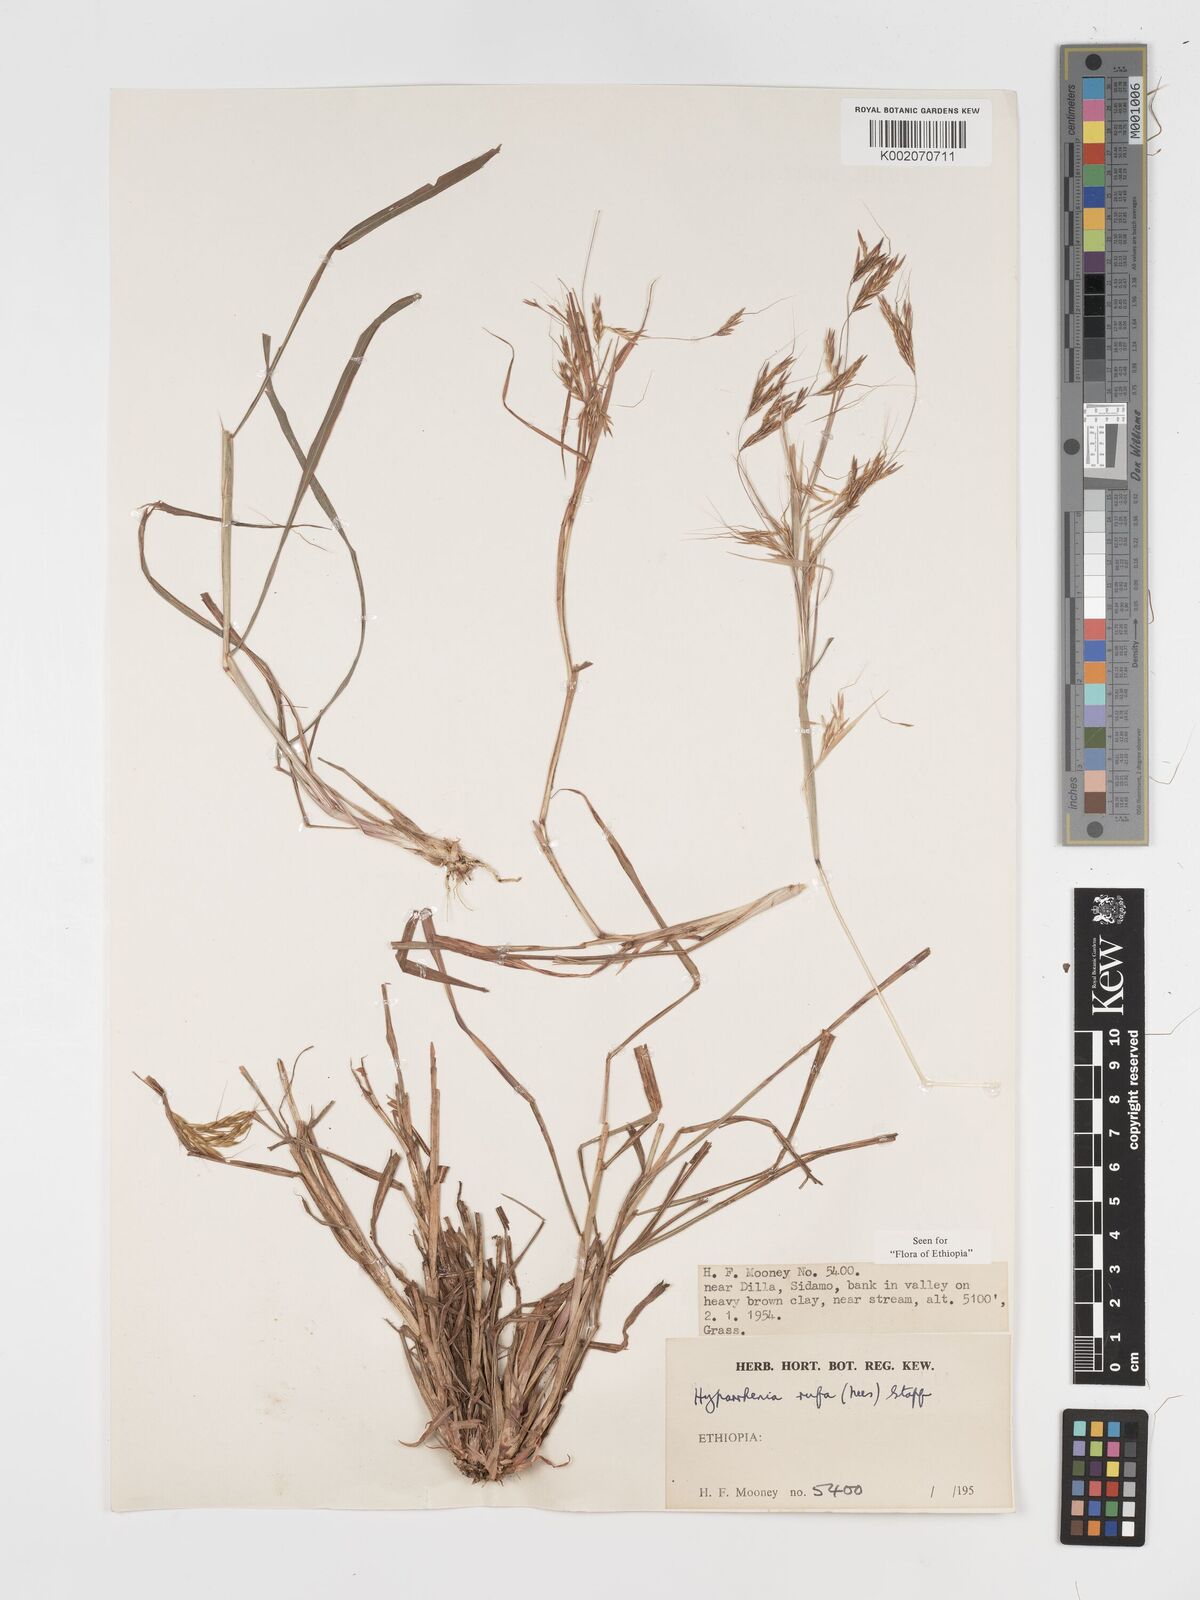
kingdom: Plantae
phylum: Tracheophyta
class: Liliopsida
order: Poales
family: Poaceae
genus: Hyparrhenia
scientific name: Hyparrhenia rufa
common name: Jaraguagrass
